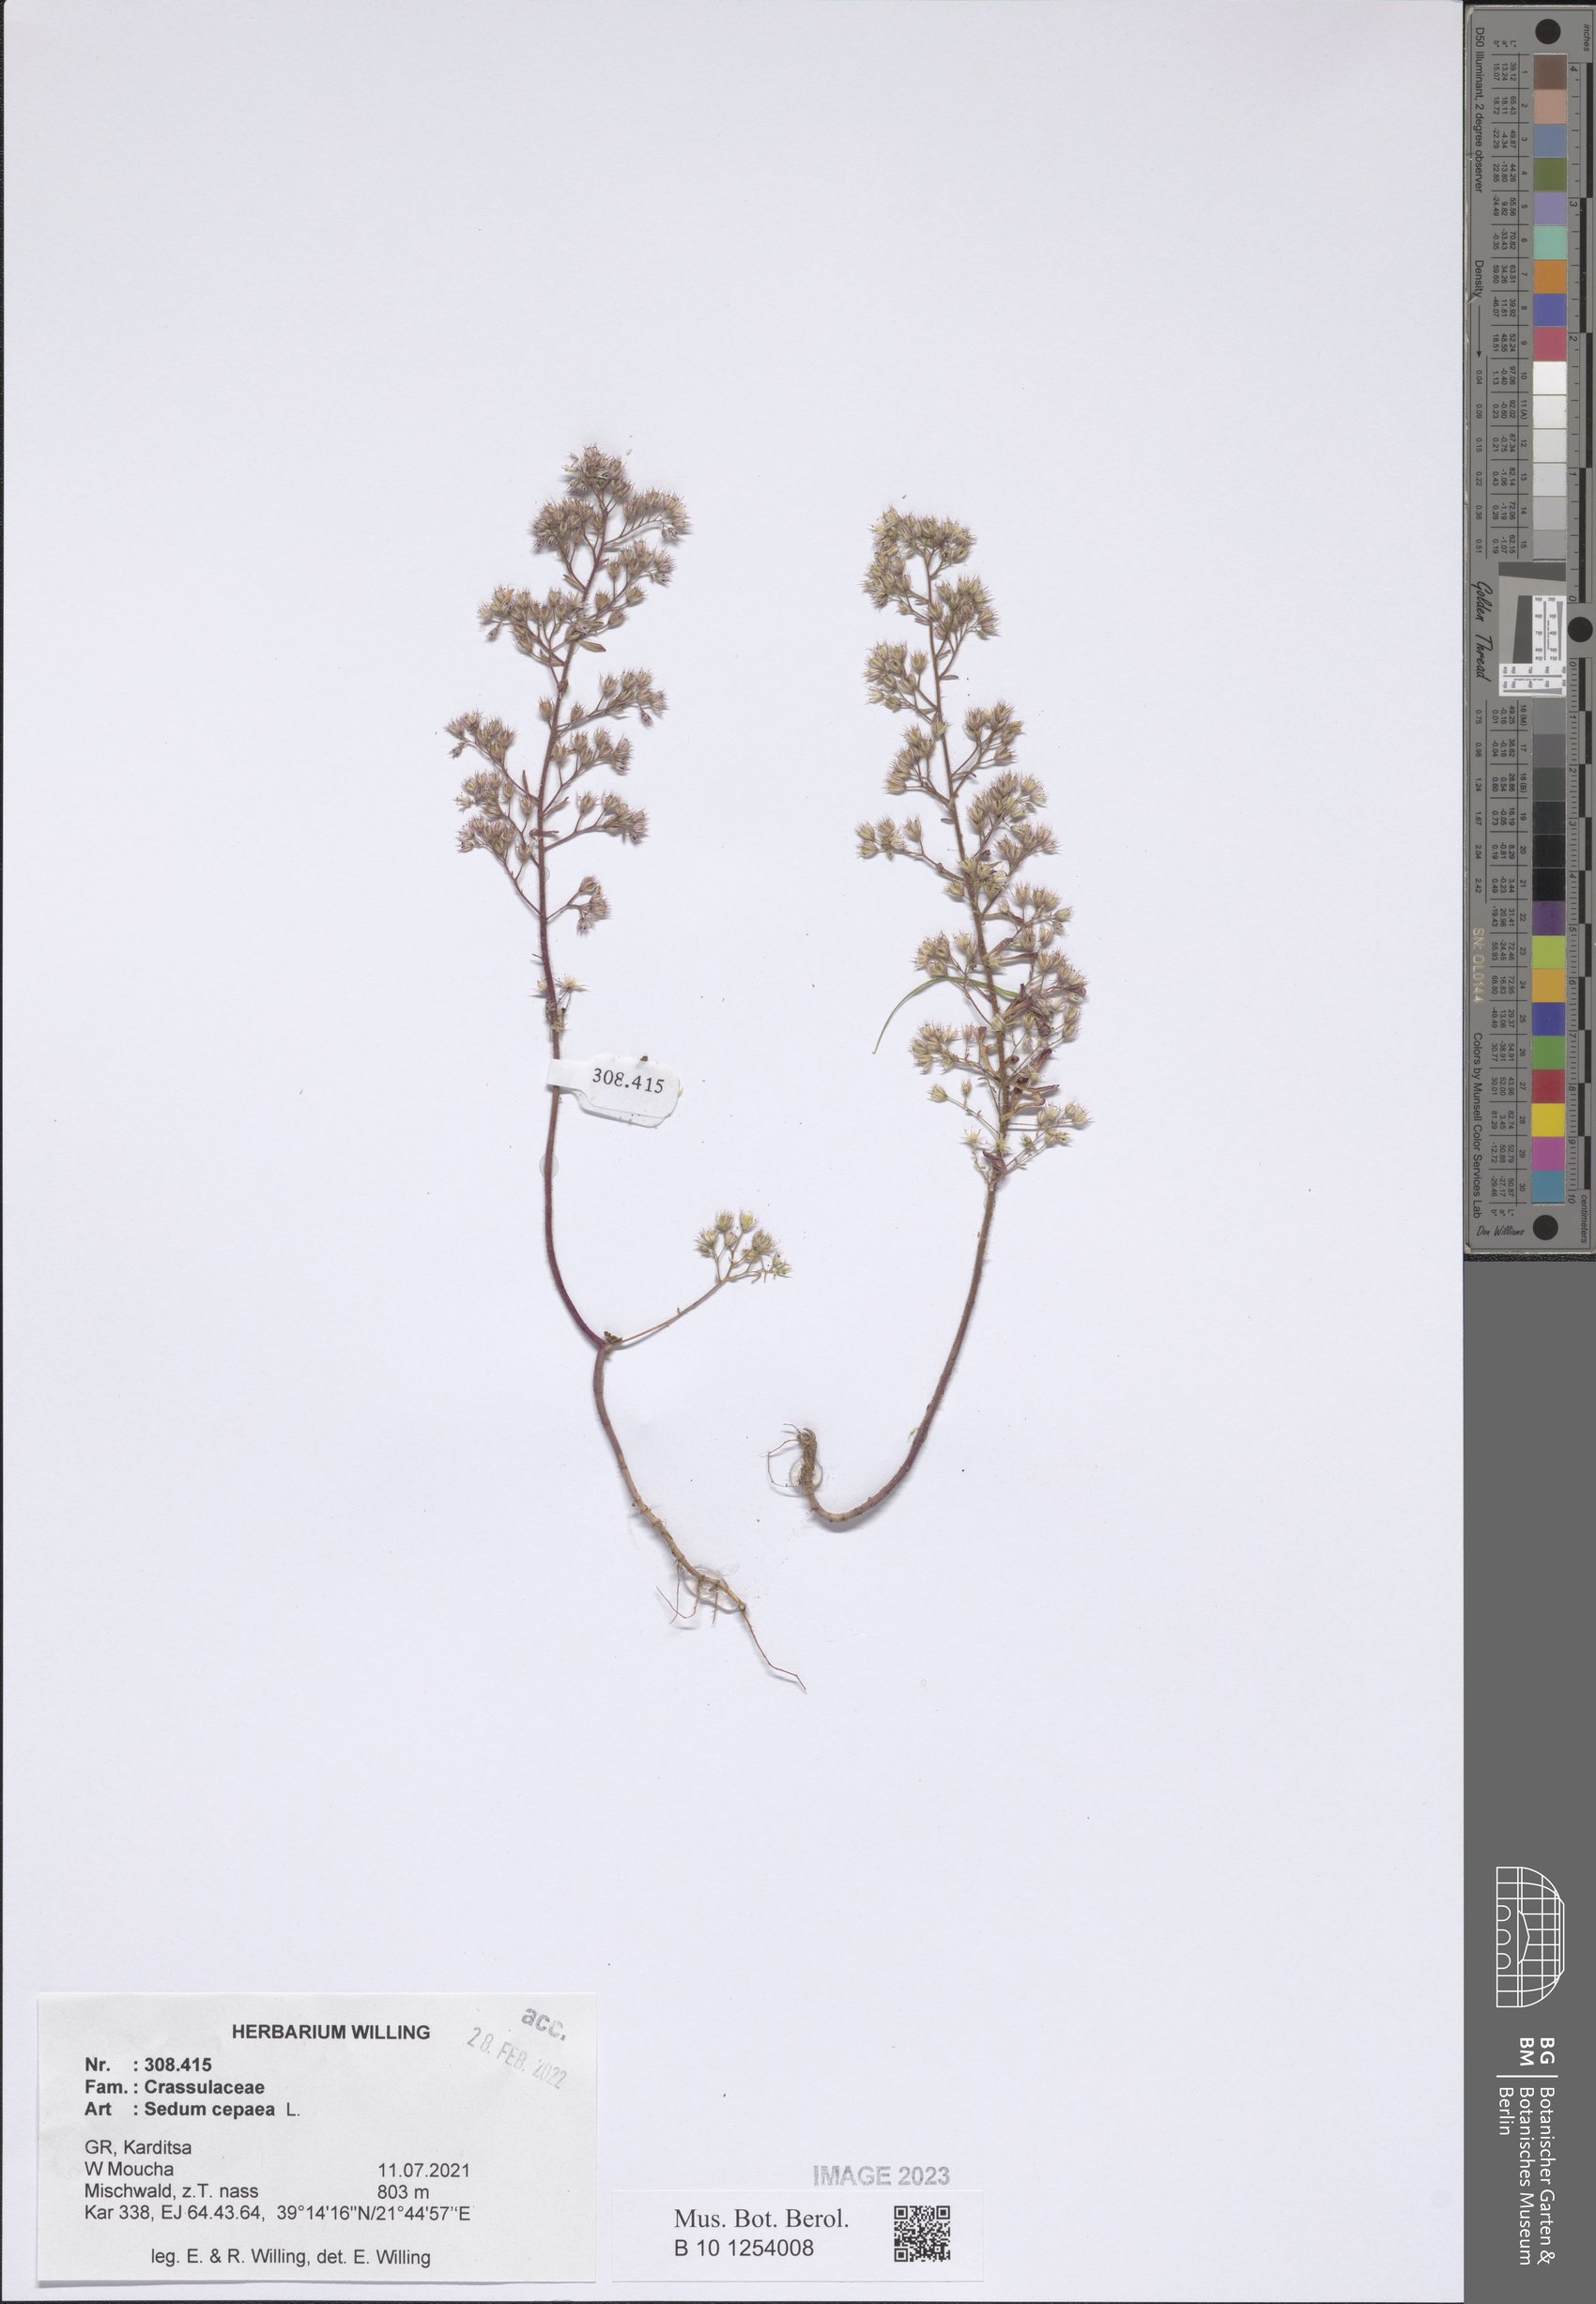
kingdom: Plantae
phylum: Tracheophyta
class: Magnoliopsida
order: Saxifragales
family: Crassulaceae
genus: Sedum
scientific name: Sedum cepaea
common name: Pink stonecrop
